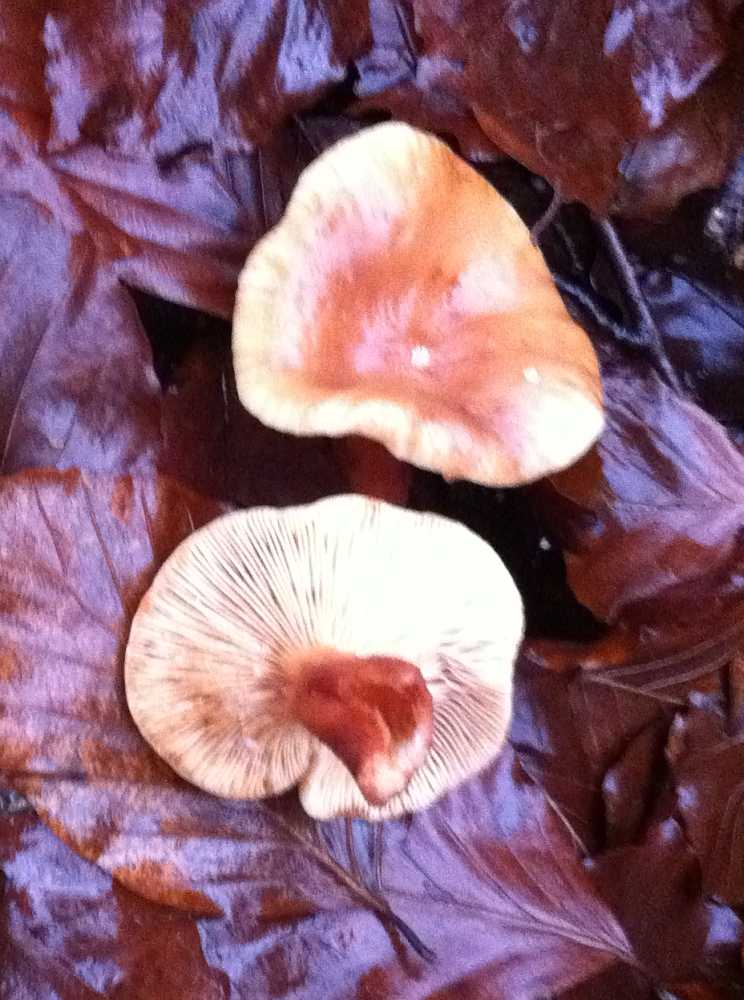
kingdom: Fungi
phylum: Basidiomycota
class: Agaricomycetes
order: Russulales
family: Russulaceae
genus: Lactarius
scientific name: Lactarius subdulcis
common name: sødlig mælkehat
